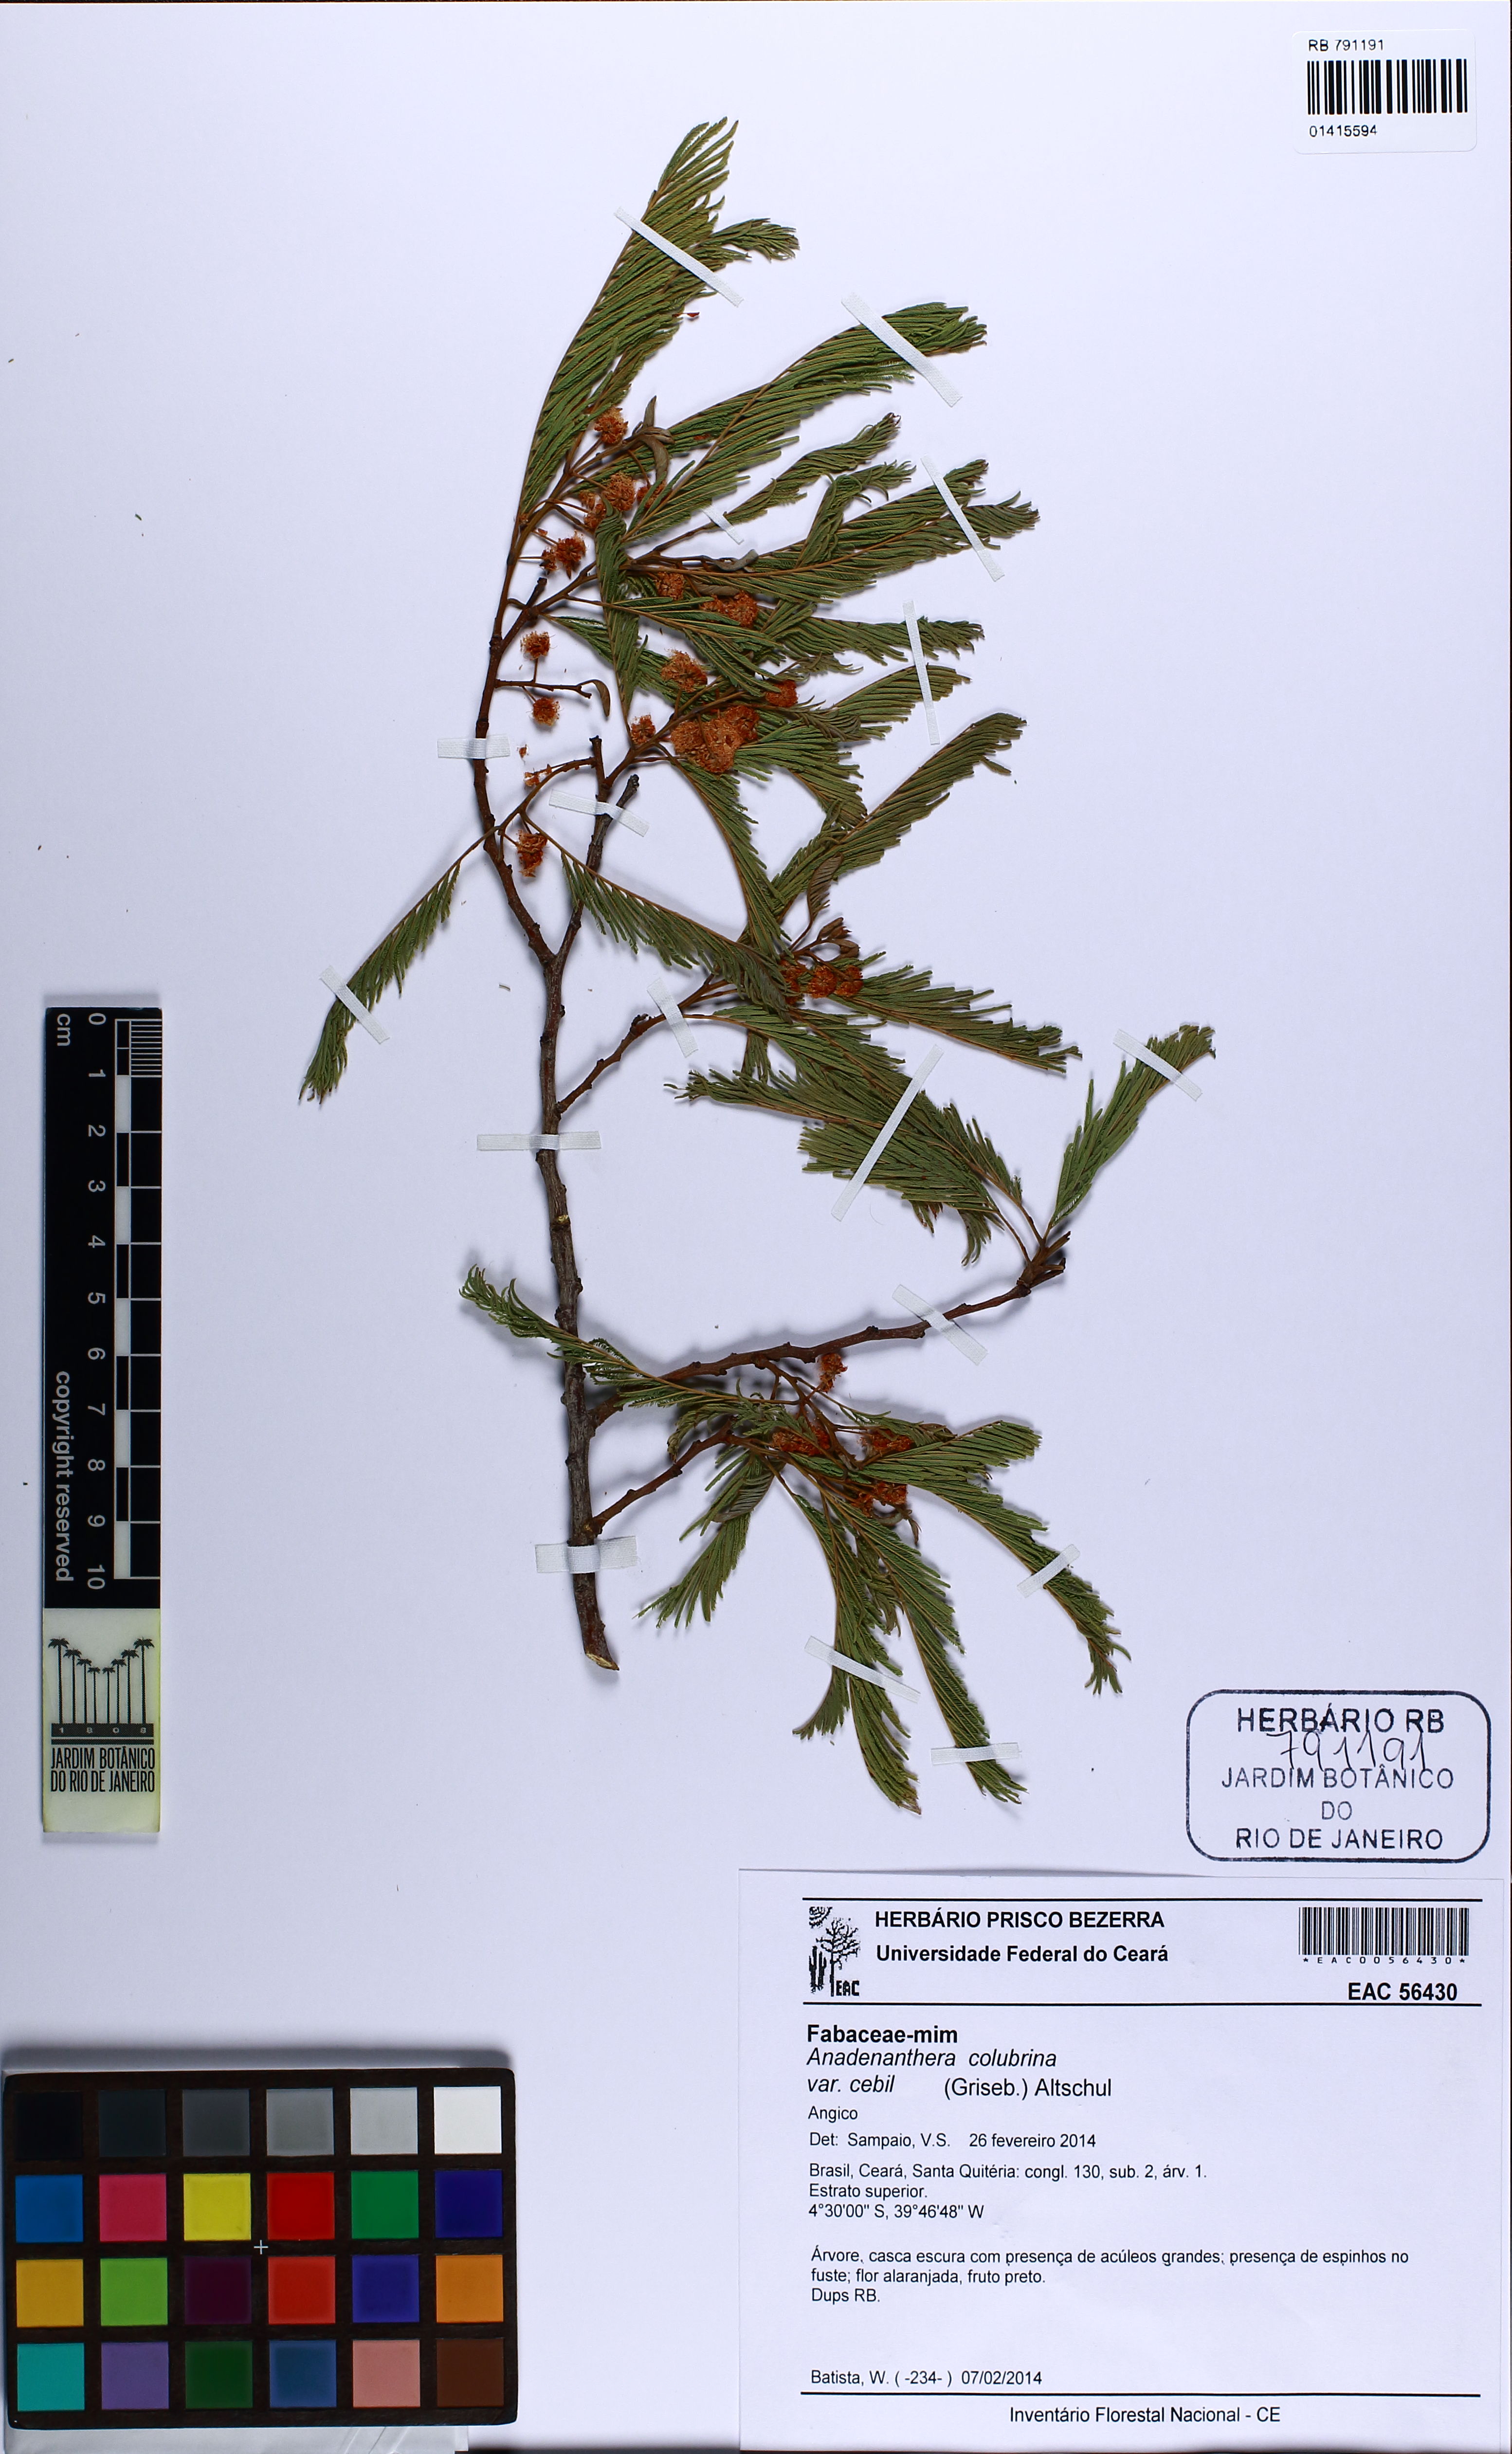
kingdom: Plantae
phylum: Tracheophyta
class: Magnoliopsida
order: Fabales
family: Fabaceae
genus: Anadenanthera
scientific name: Anadenanthera colubrina
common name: Curupay
